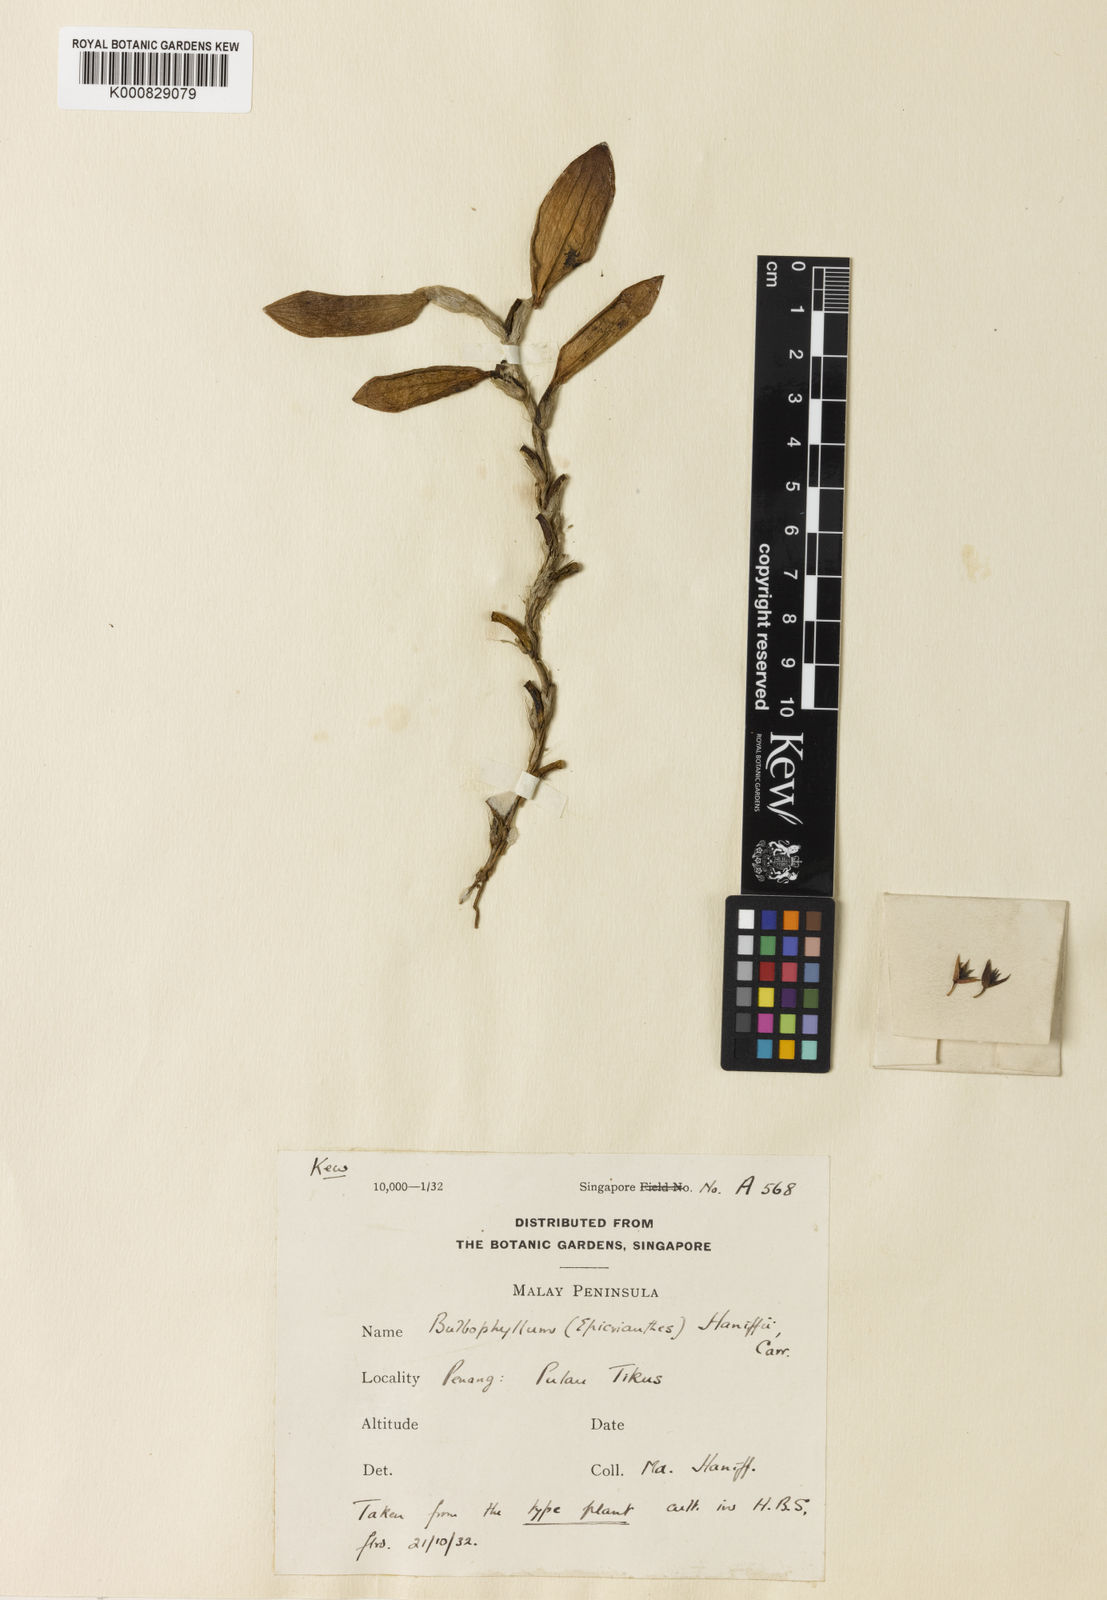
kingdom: Plantae
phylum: Tracheophyta
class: Liliopsida
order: Asparagales
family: Orchidaceae
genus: Bulbophyllum
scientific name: Bulbophyllum haniffii
